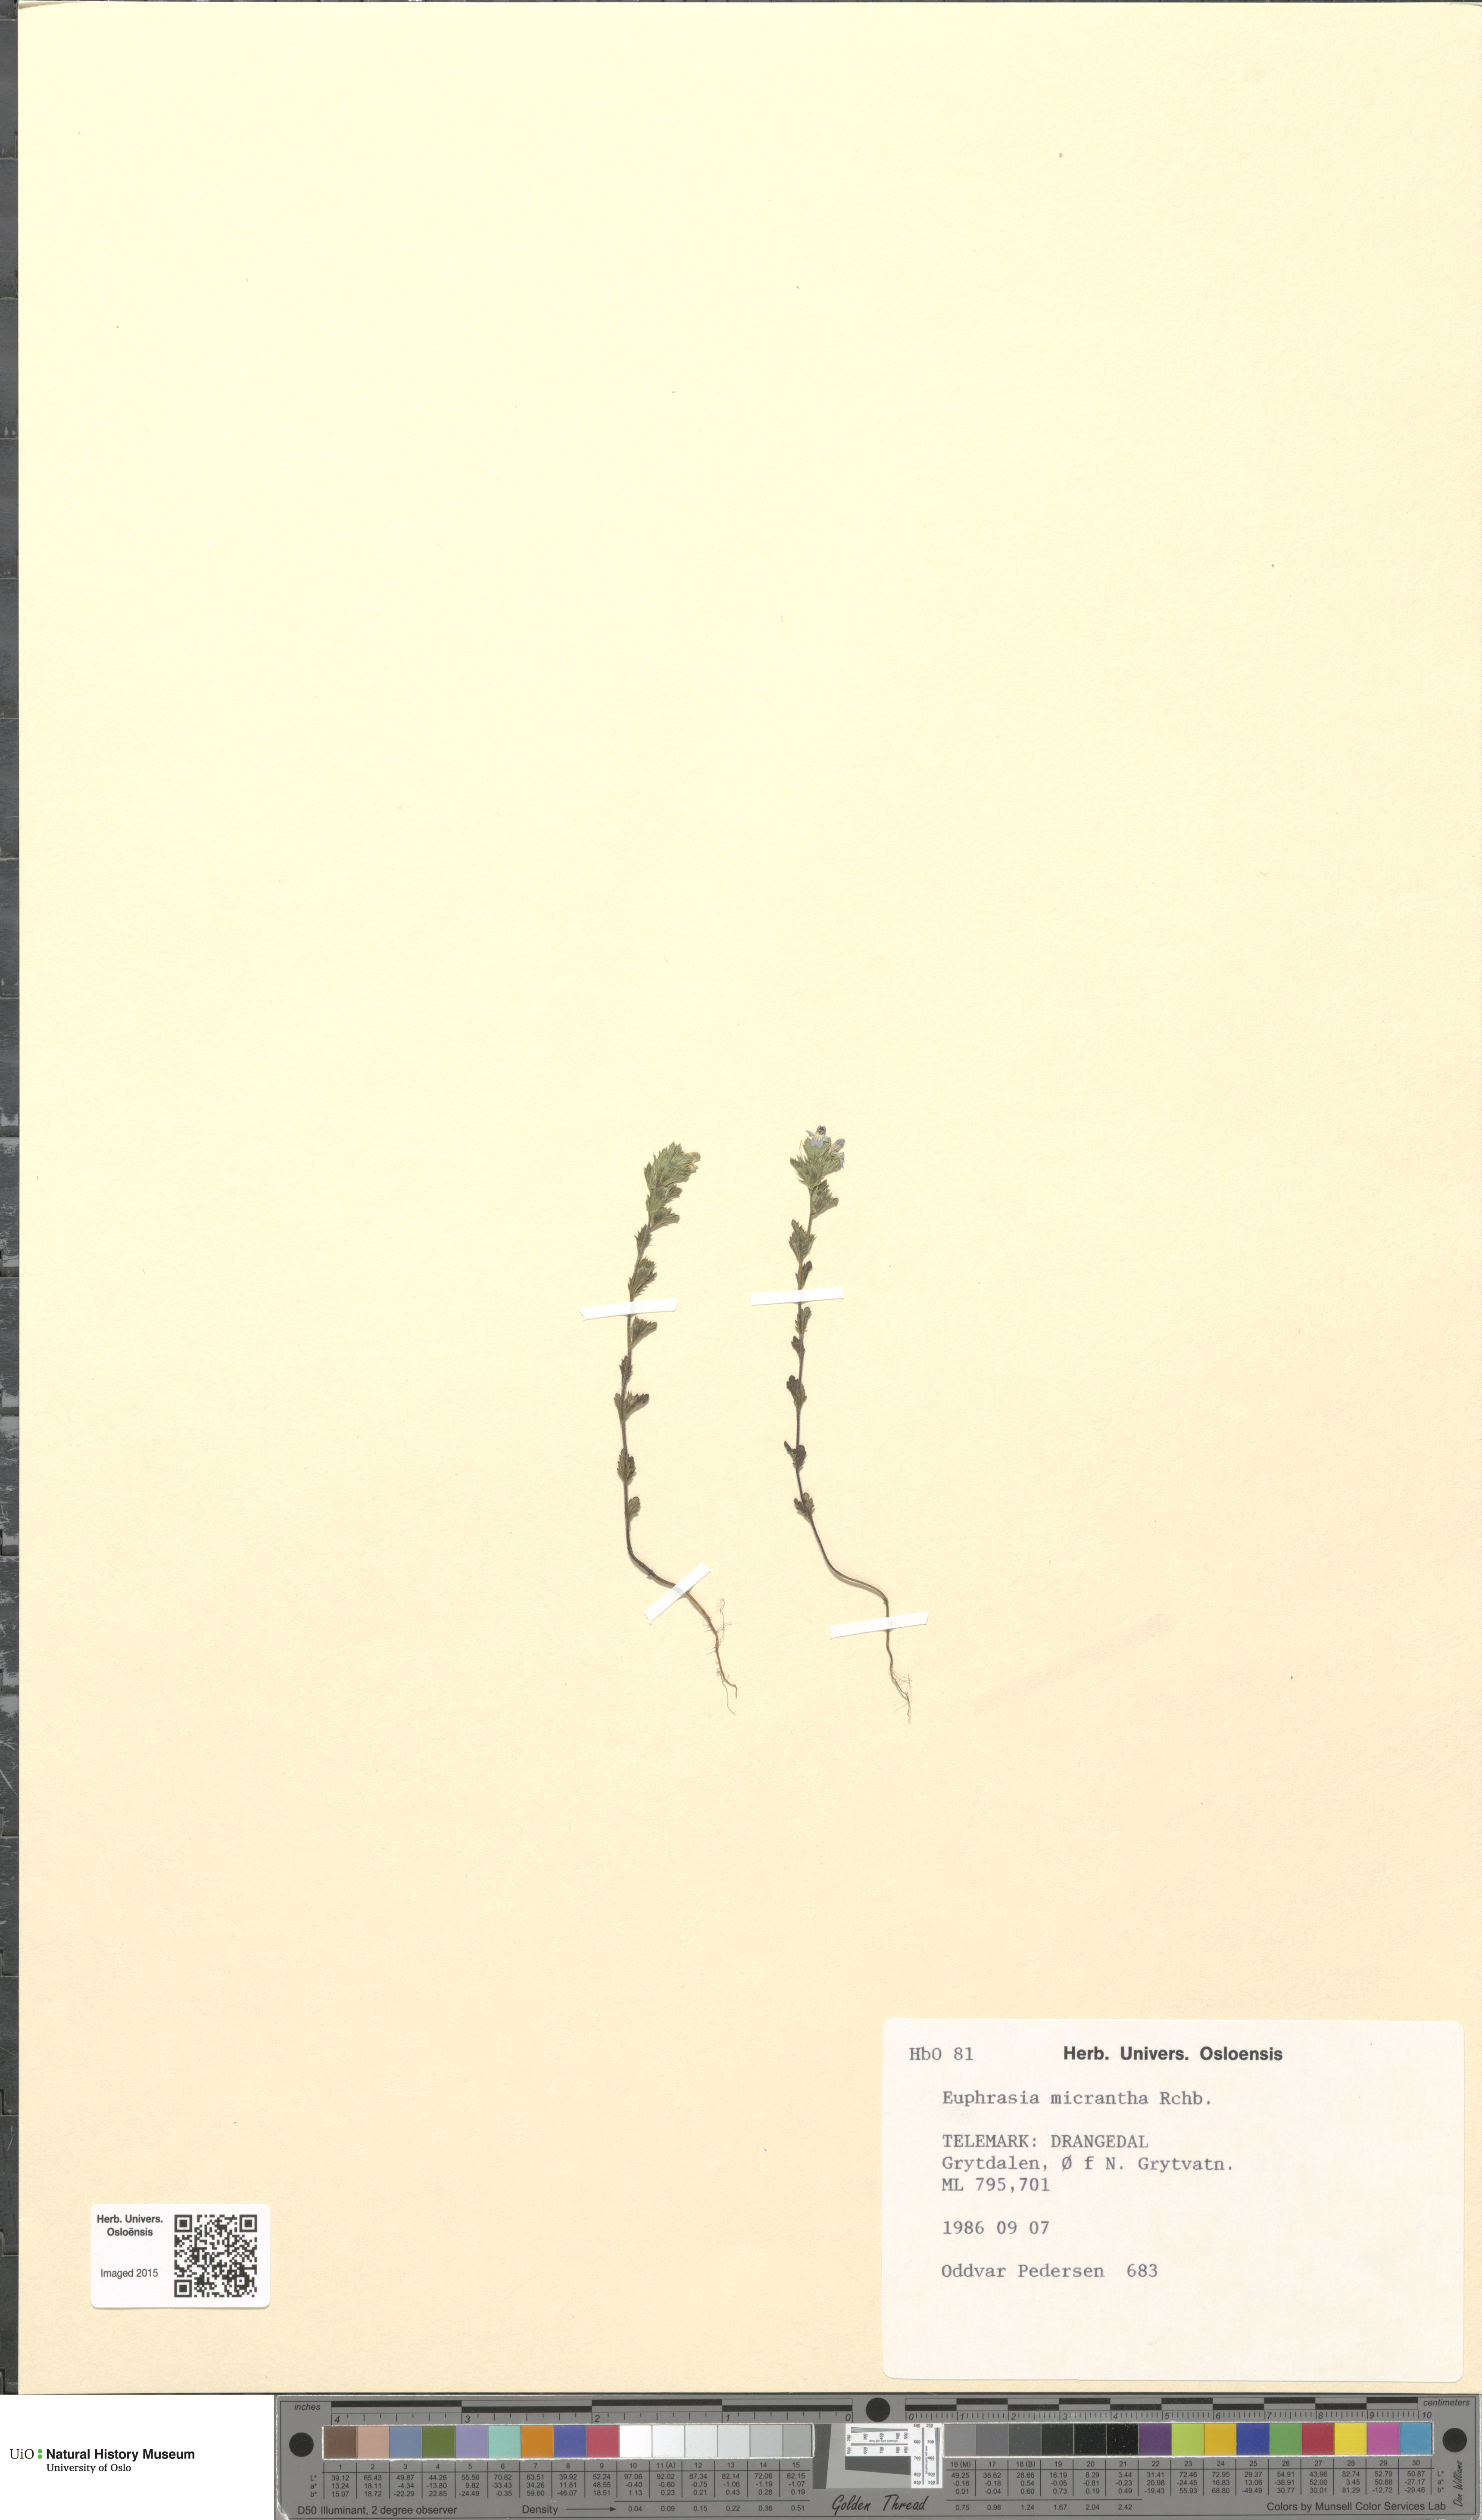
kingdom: Plantae
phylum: Tracheophyta
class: Magnoliopsida
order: Lamiales
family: Orobanchaceae
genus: Euphrasia
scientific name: Euphrasia micrantha
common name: Northern eyebright
